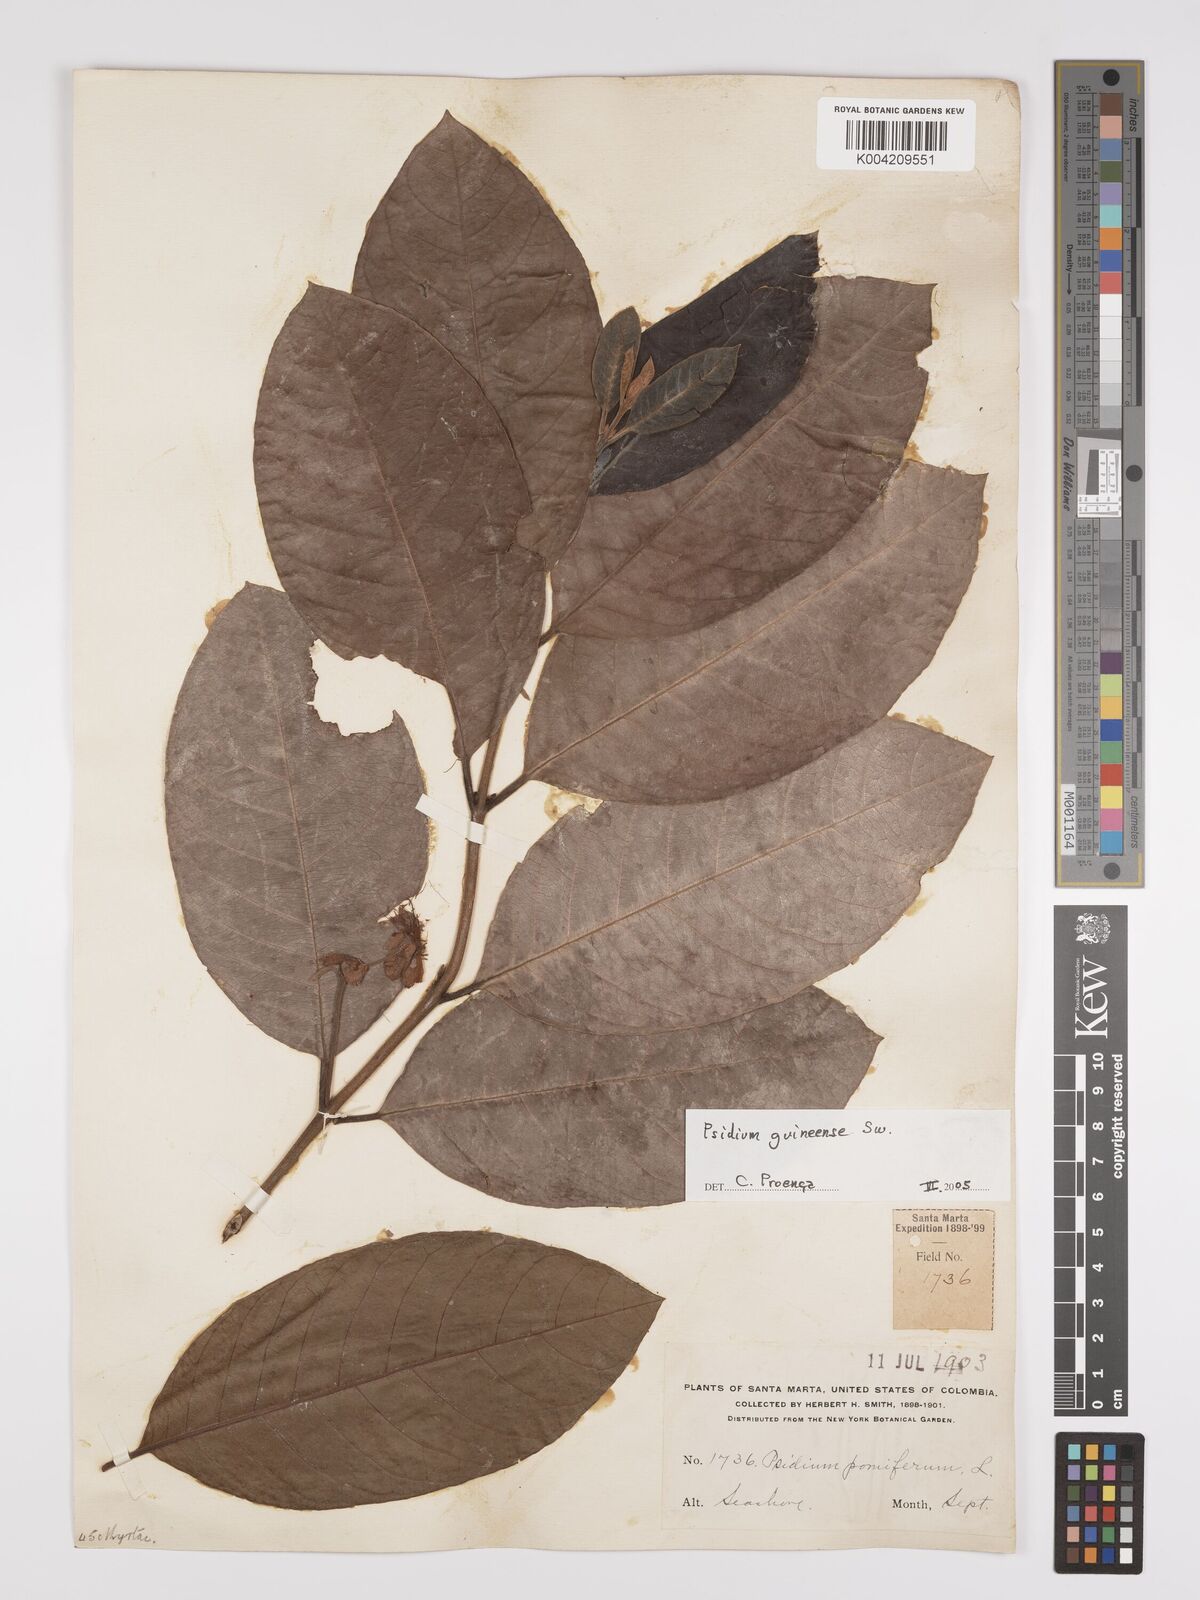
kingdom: Plantae
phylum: Tracheophyta
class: Magnoliopsida
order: Myrtales
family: Myrtaceae
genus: Psidium
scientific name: Psidium guineense
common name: Brazilian guava
